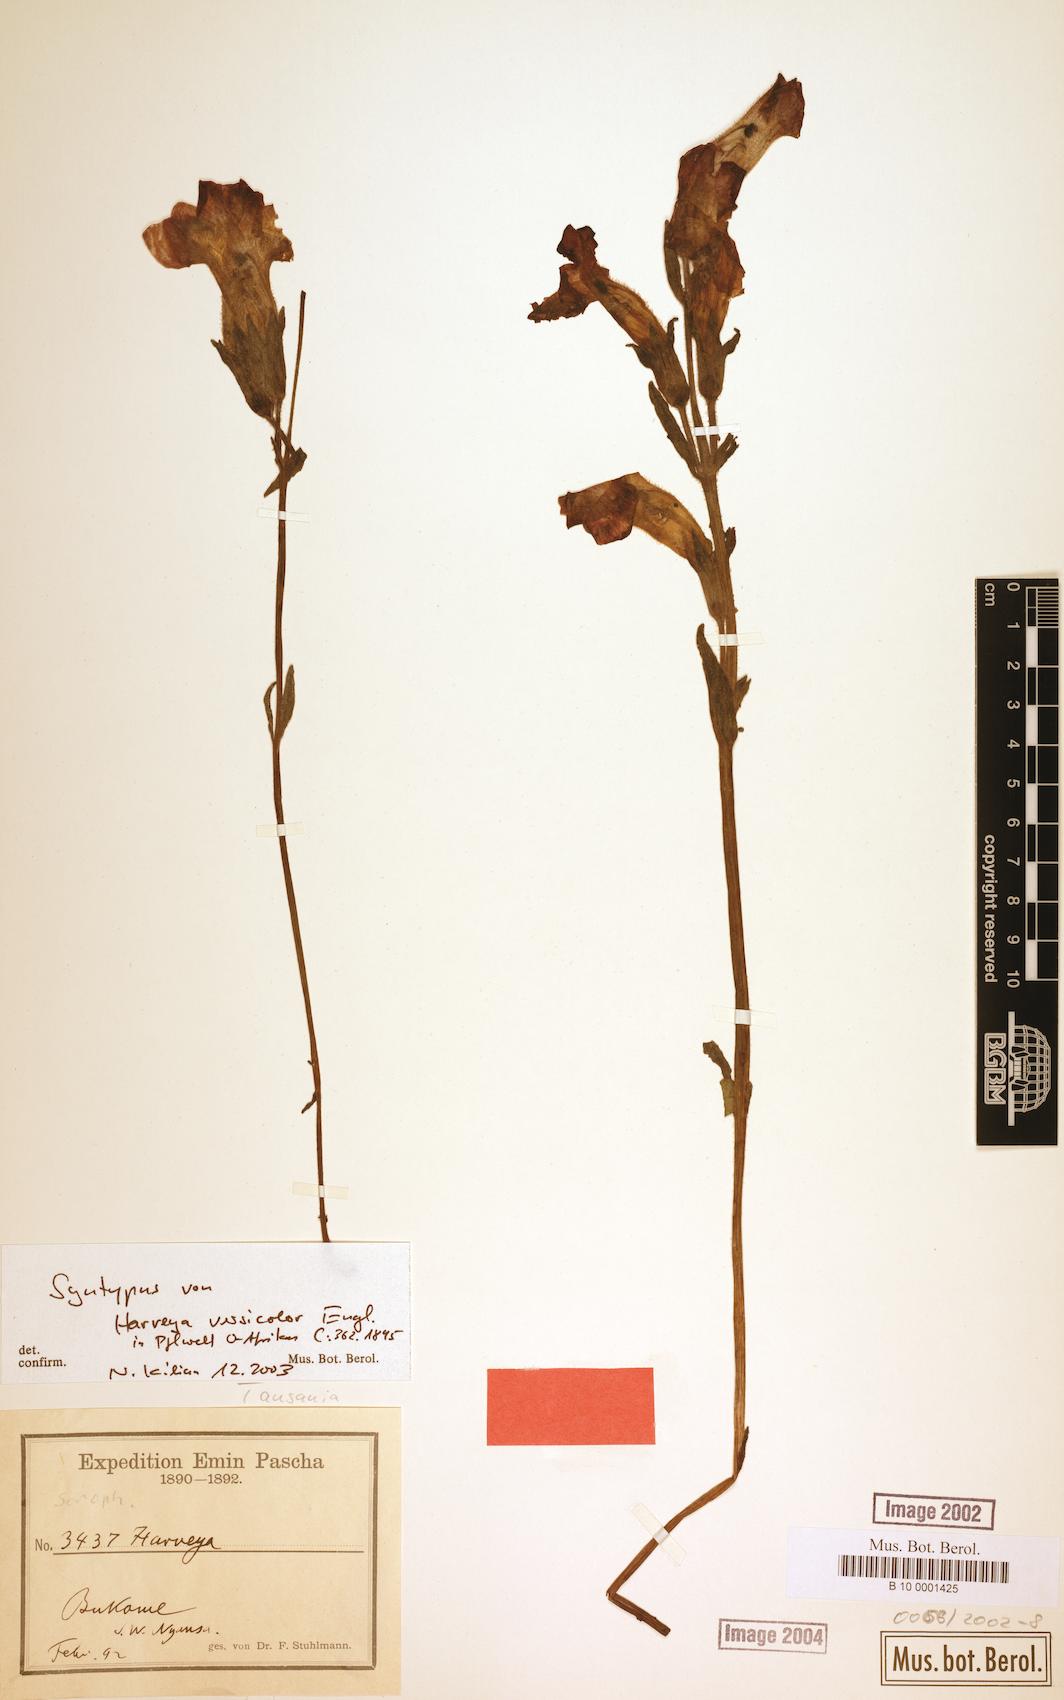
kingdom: Plantae
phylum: Tracheophyta
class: Magnoliopsida
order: Lamiales
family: Orobanchaceae
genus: Harveya
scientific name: Harveya versicolor
